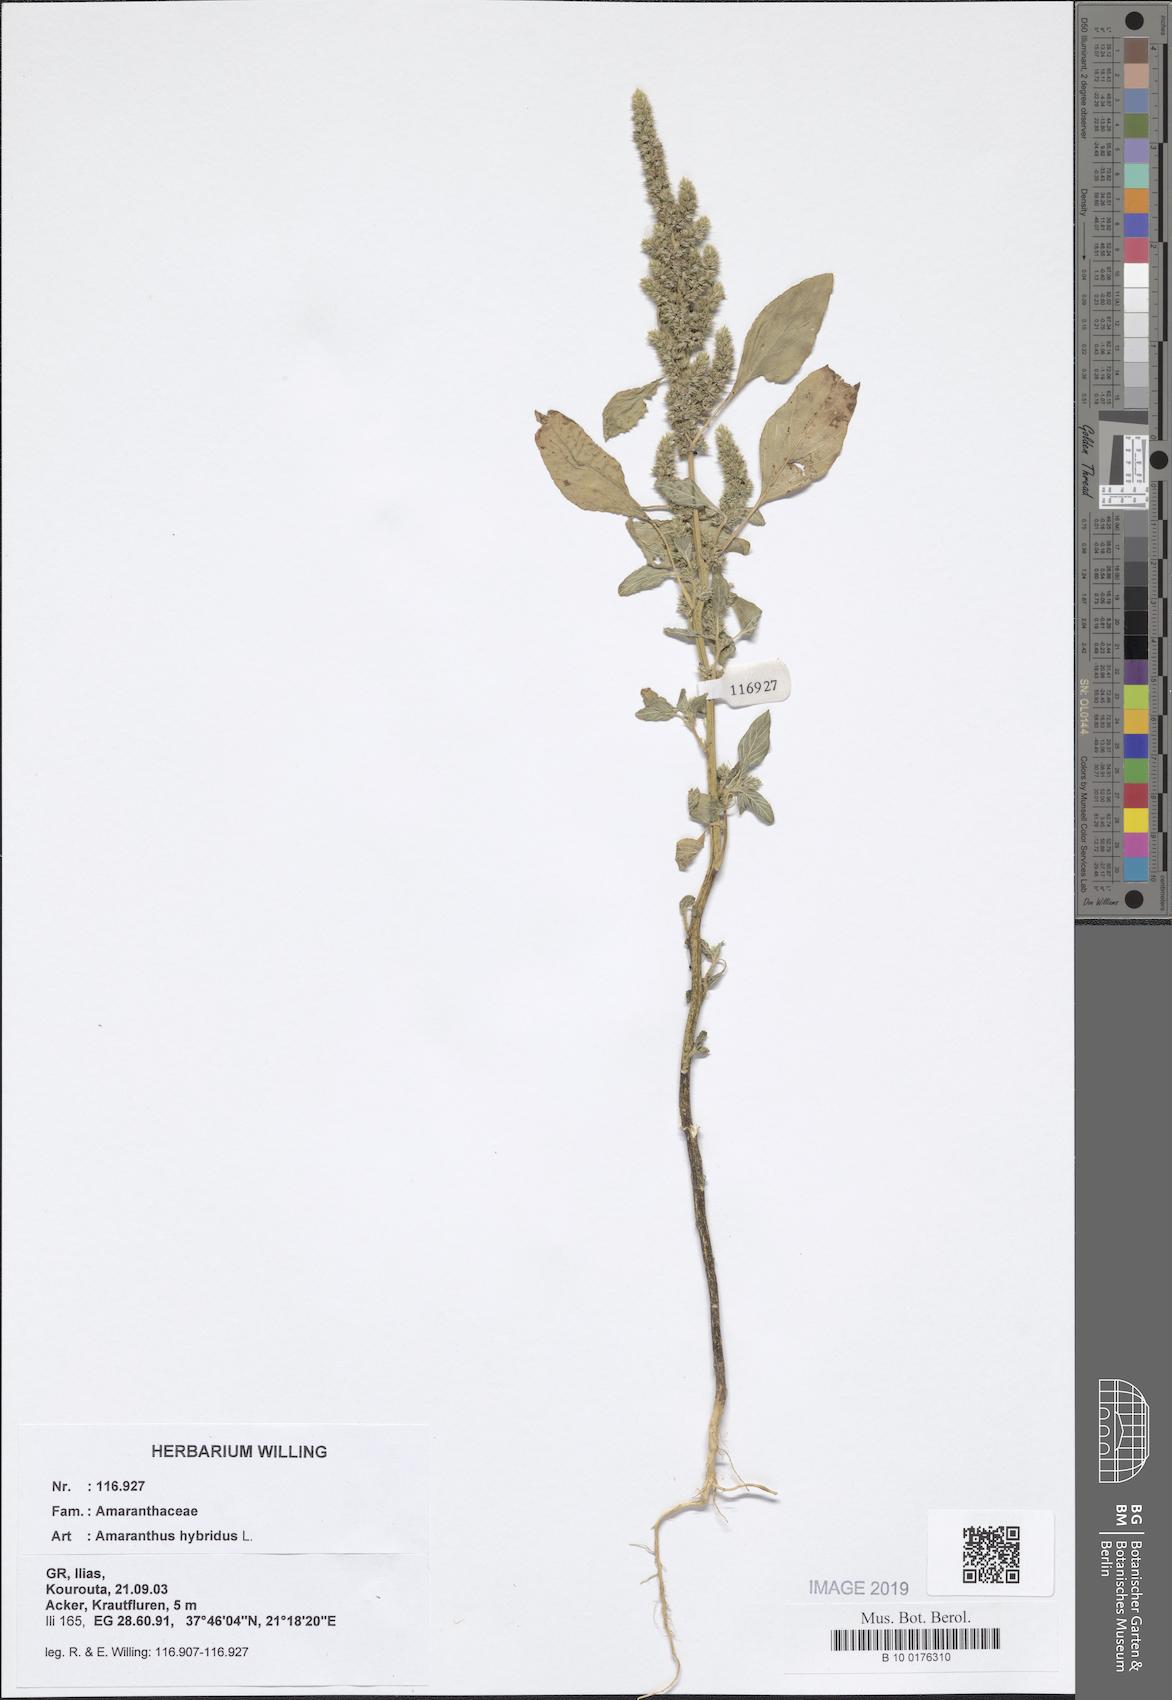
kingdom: Plantae
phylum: Tracheophyta
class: Magnoliopsida
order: Caryophyllales
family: Amaranthaceae
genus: Amaranthus
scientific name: Amaranthus hybridus
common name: Green amaranth
